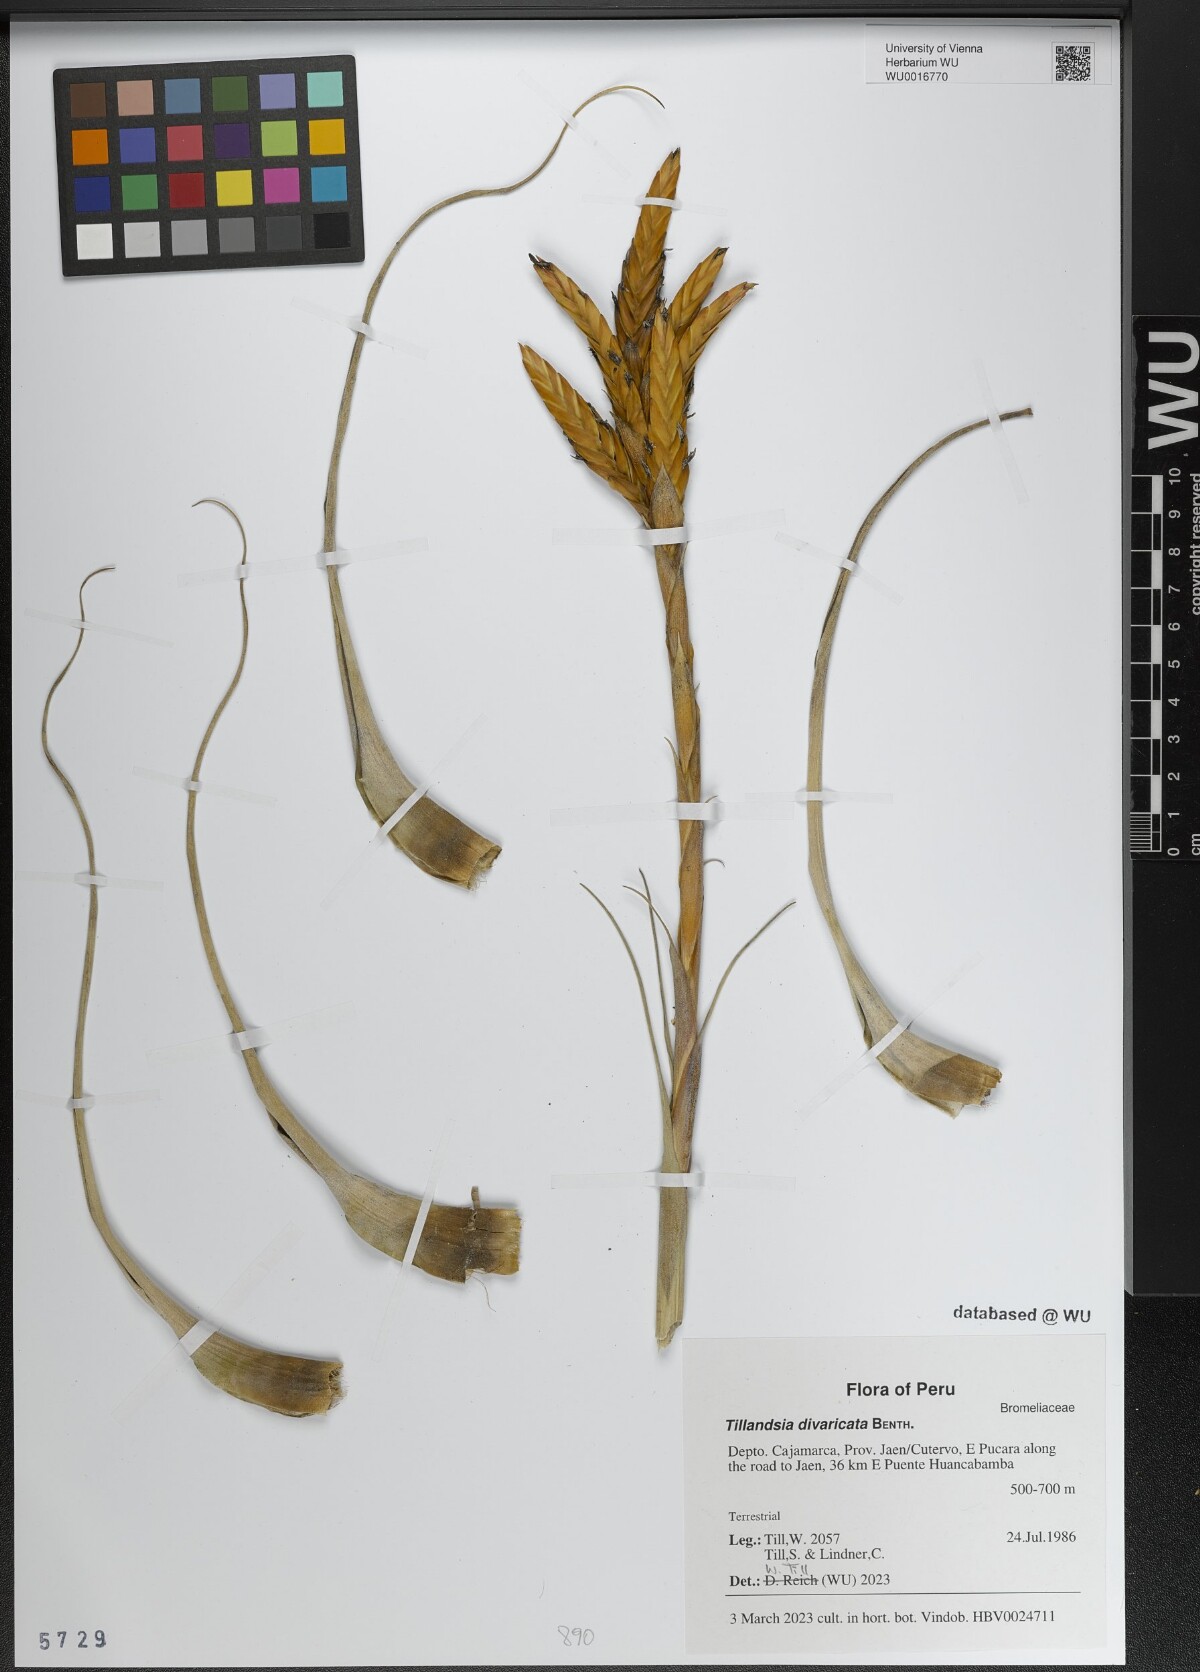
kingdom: Plantae
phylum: Tracheophyta
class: Liliopsida
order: Poales
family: Bromeliaceae
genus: Tillandsia
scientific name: Tillandsia latifolia
